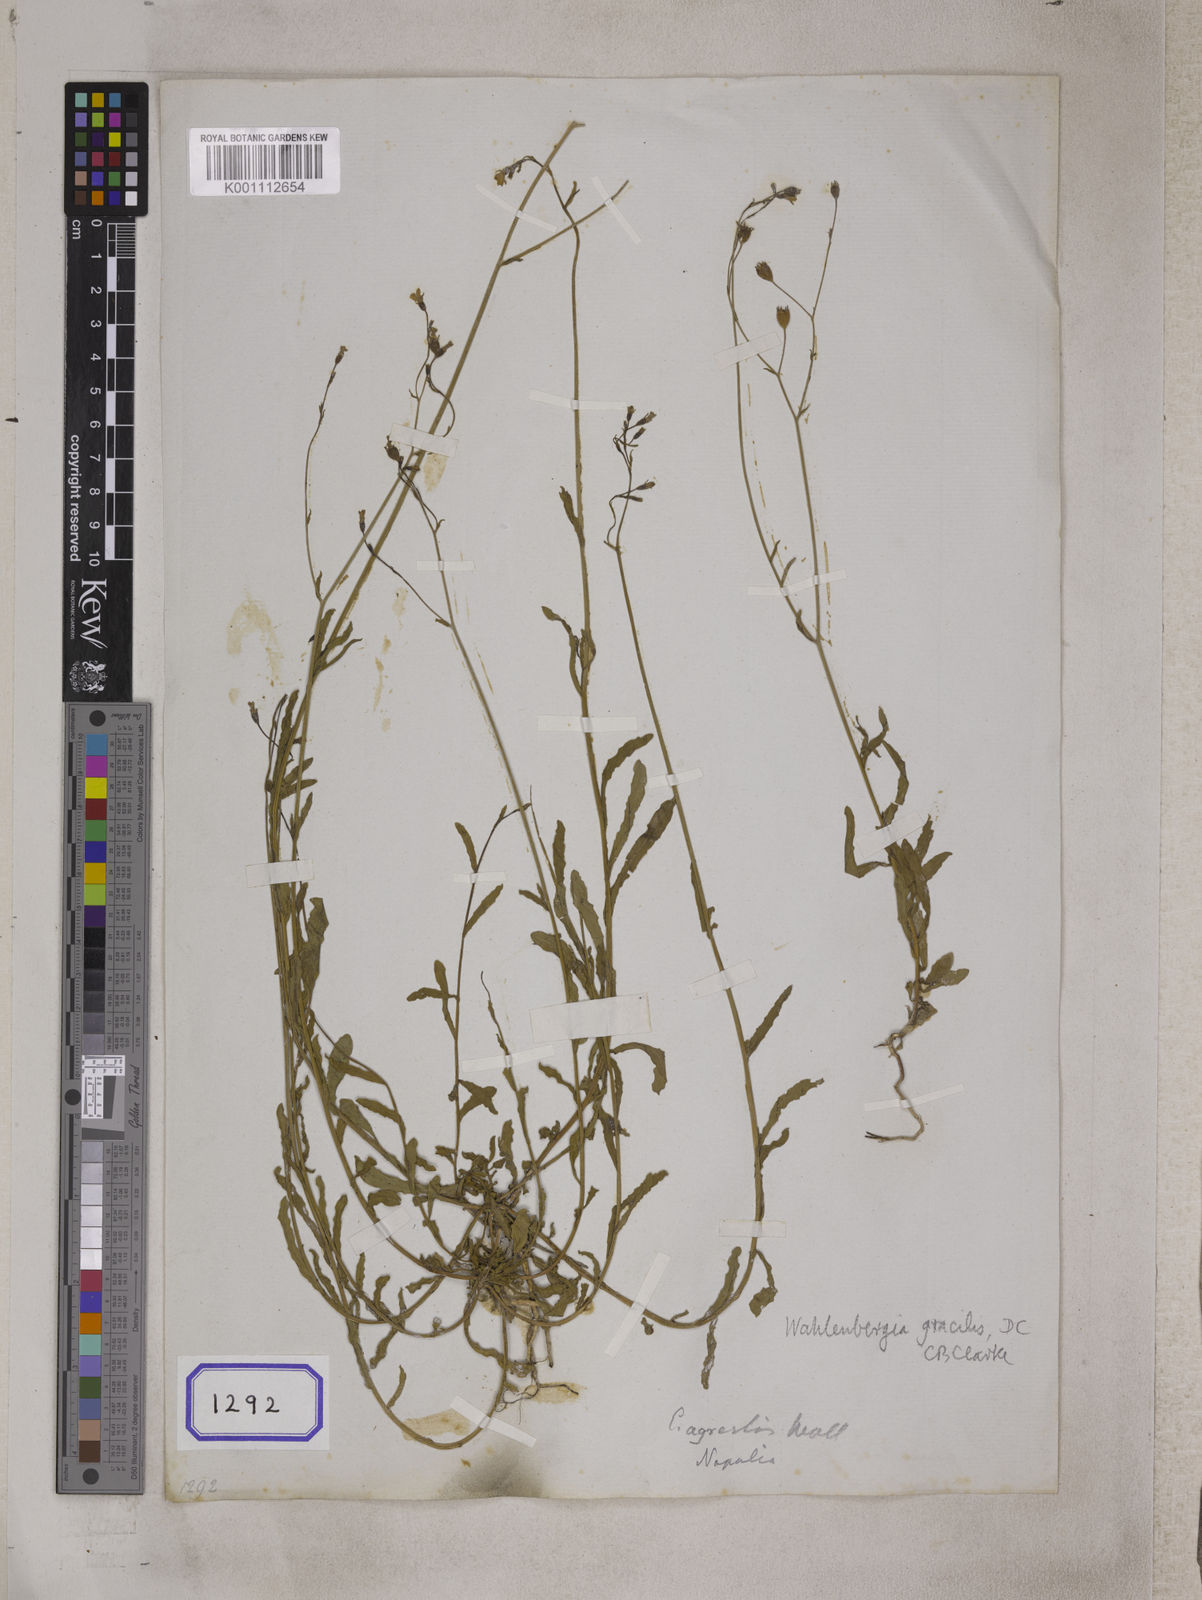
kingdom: Plantae
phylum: Tracheophyta
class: Magnoliopsida
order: Asterales
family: Campanulaceae
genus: Campanula
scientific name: Campanula
